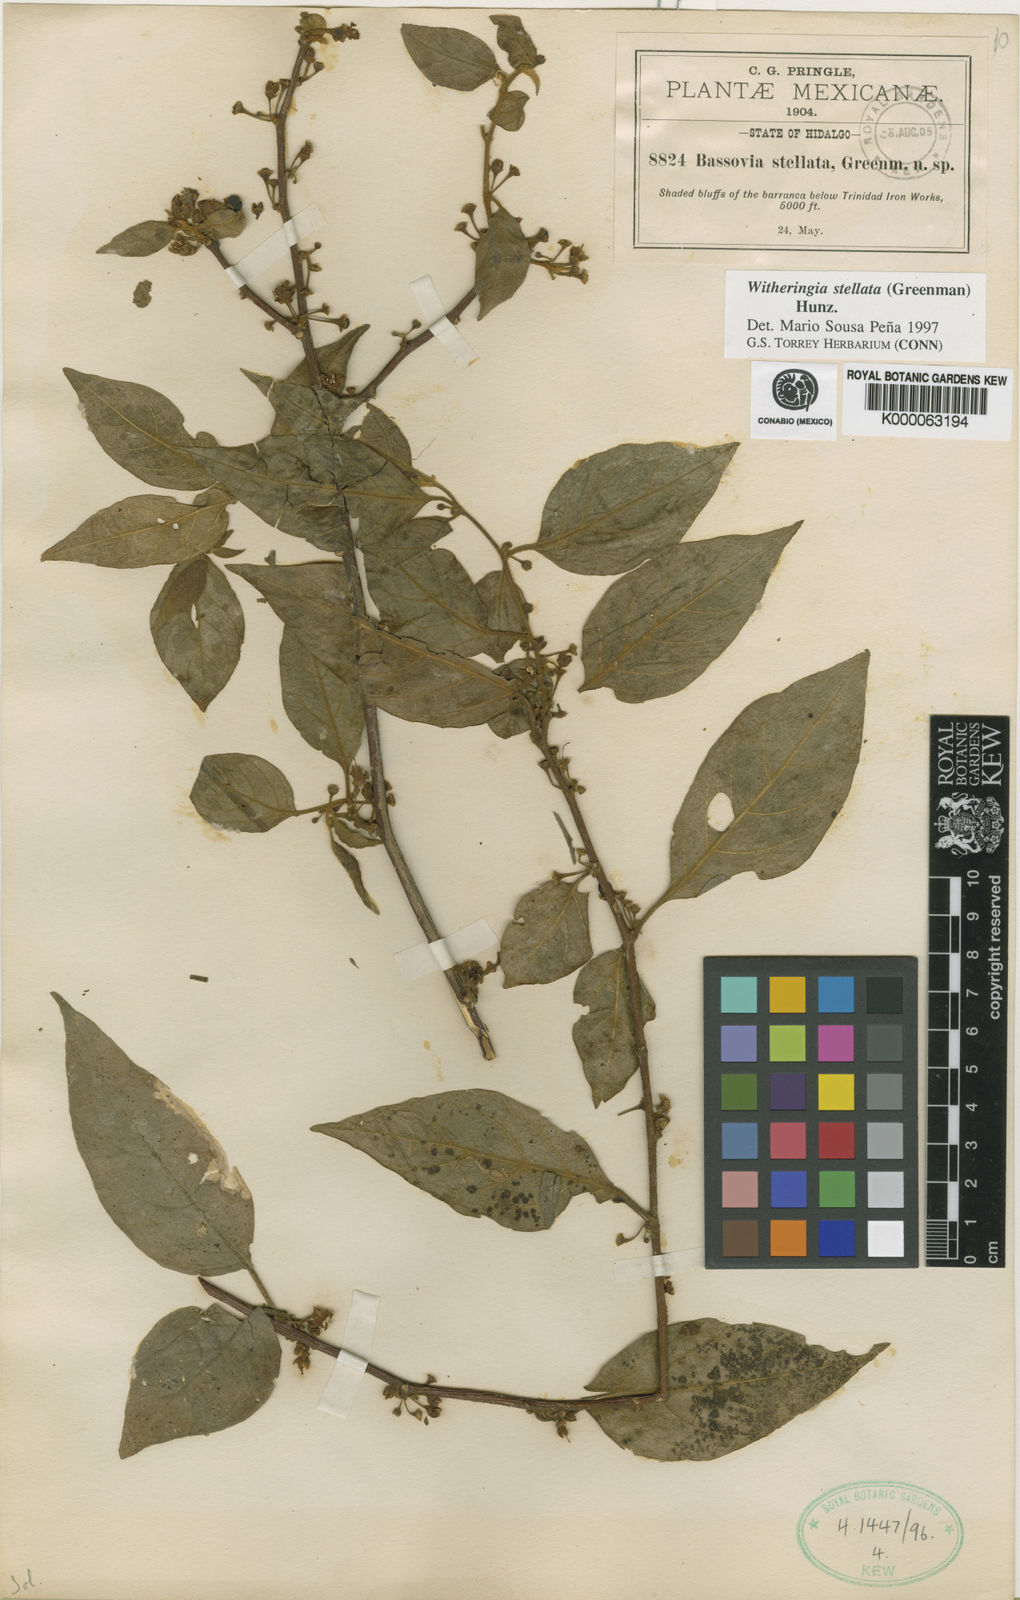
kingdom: Plantae
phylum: Tracheophyta
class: Magnoliopsida
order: Solanales
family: Solanaceae
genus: Witheringia
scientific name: Witheringia stellata
